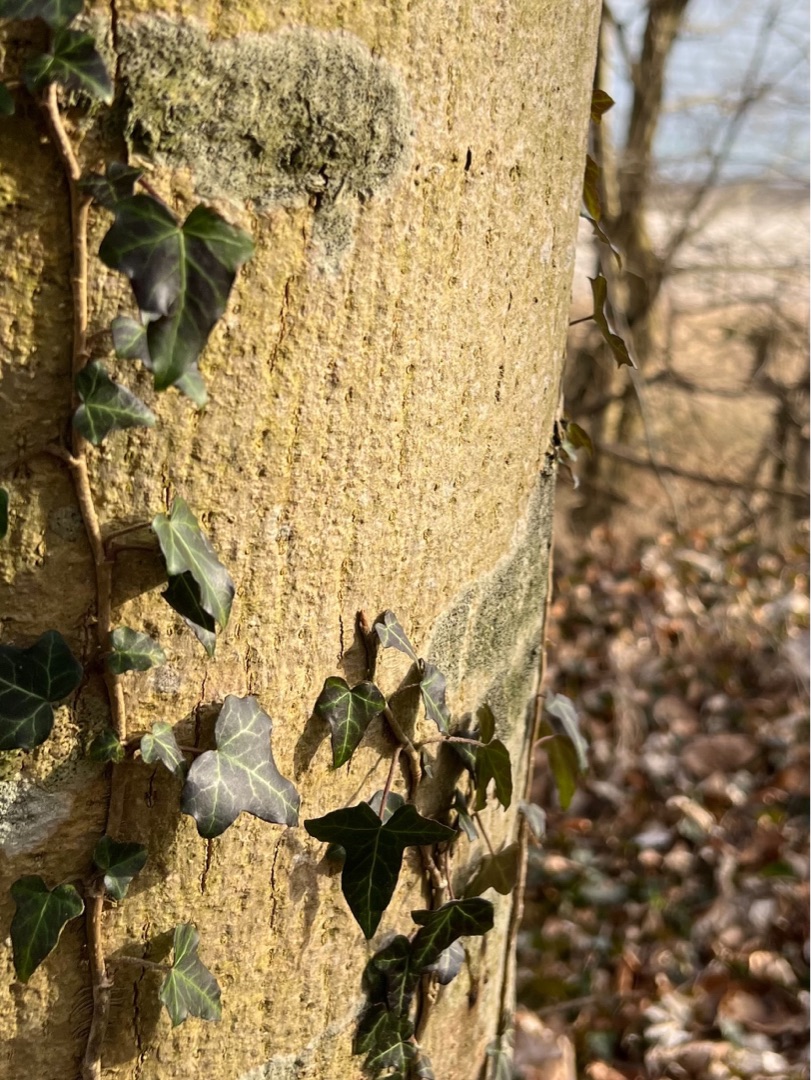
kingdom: Plantae
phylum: Tracheophyta
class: Magnoliopsida
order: Apiales
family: Araliaceae
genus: Hedera
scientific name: Hedera helix
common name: Vedbend
